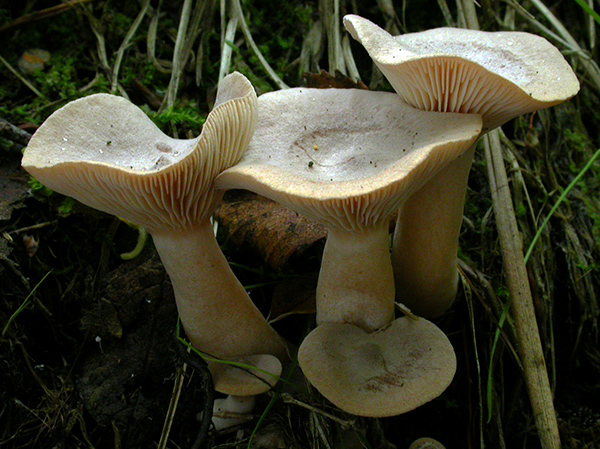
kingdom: Fungi
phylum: Basidiomycota
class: Agaricomycetes
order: Russulales
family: Russulaceae
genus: Lactarius
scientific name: Lactarius glyciosmus
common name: kokos-mælkehat
